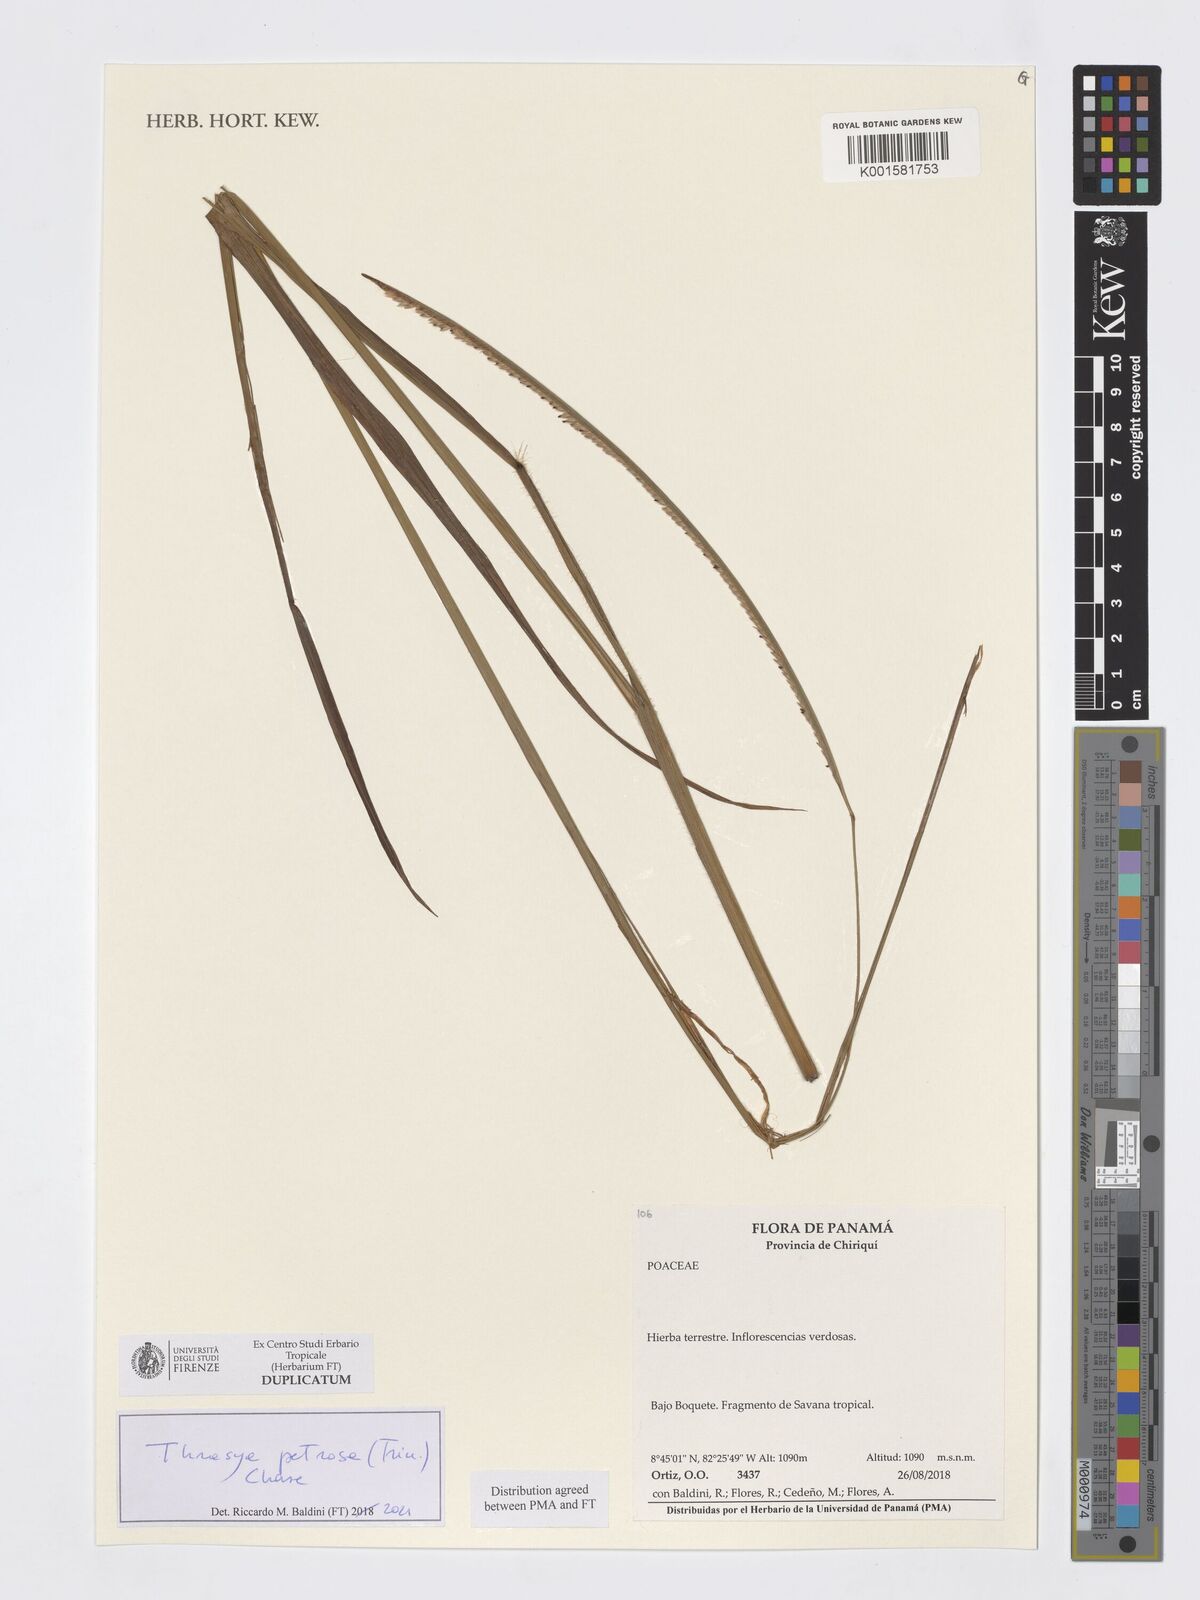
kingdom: Plantae
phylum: Tracheophyta
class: Liliopsida
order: Poales
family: Poaceae
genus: Paspalum
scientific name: Paspalum foliiforme
